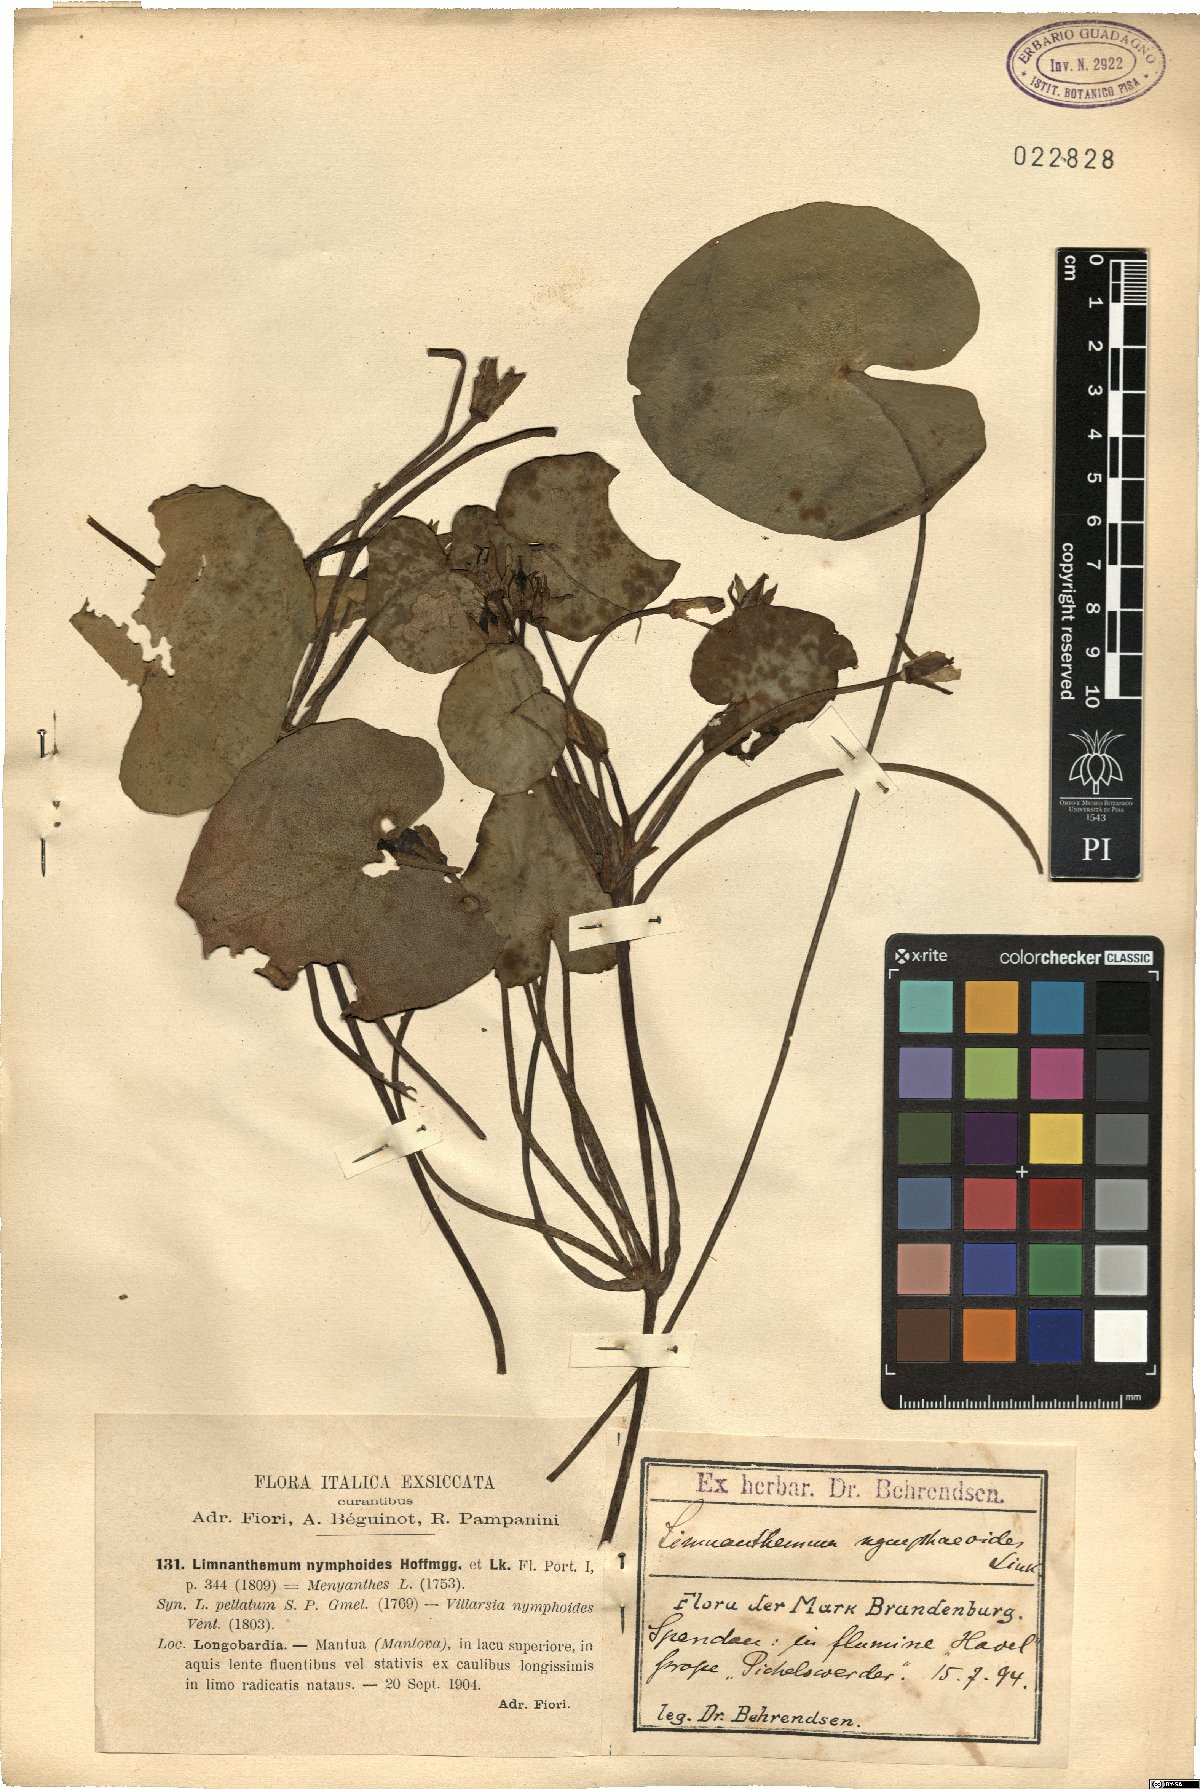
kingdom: Plantae
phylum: Tracheophyta
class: Magnoliopsida
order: Asterales
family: Menyanthaceae
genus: Nymphoides
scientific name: Nymphoides peltata
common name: Fringed water-lily
